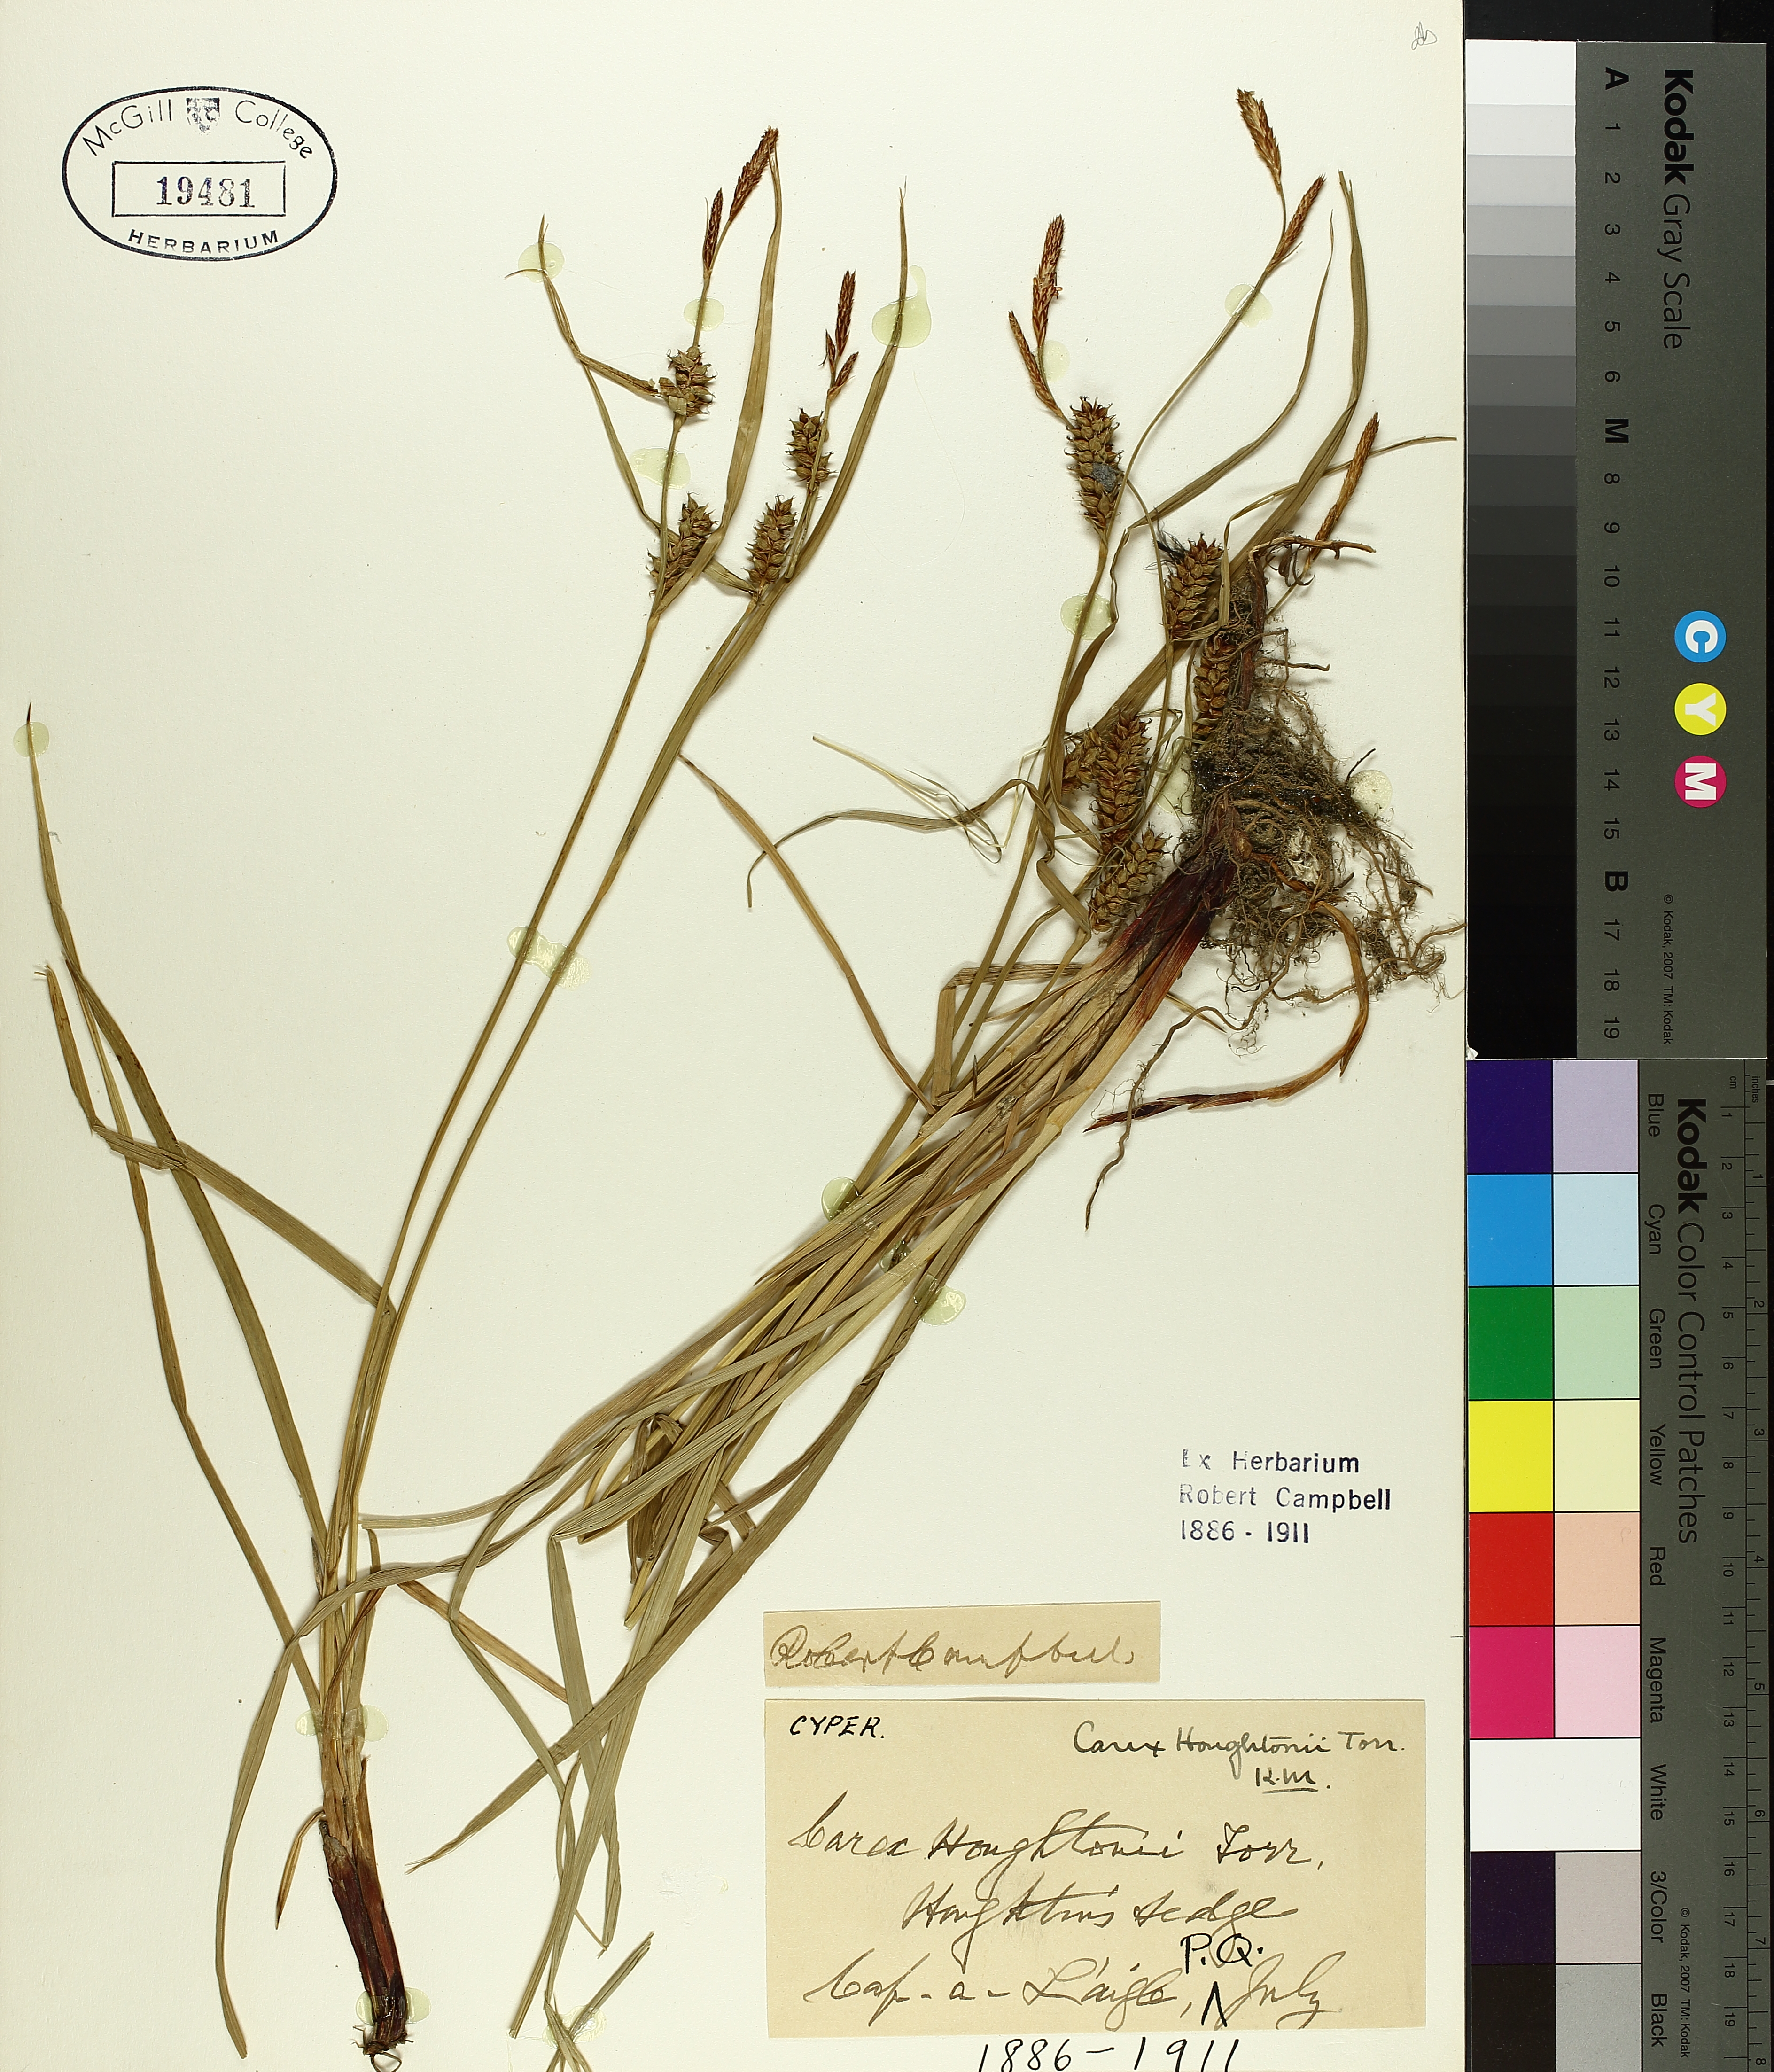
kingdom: Plantae
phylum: Tracheophyta
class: Liliopsida
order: Poales
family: Cyperaceae
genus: Carex
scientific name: Carex houghtoniana
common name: Houghton's sedge
